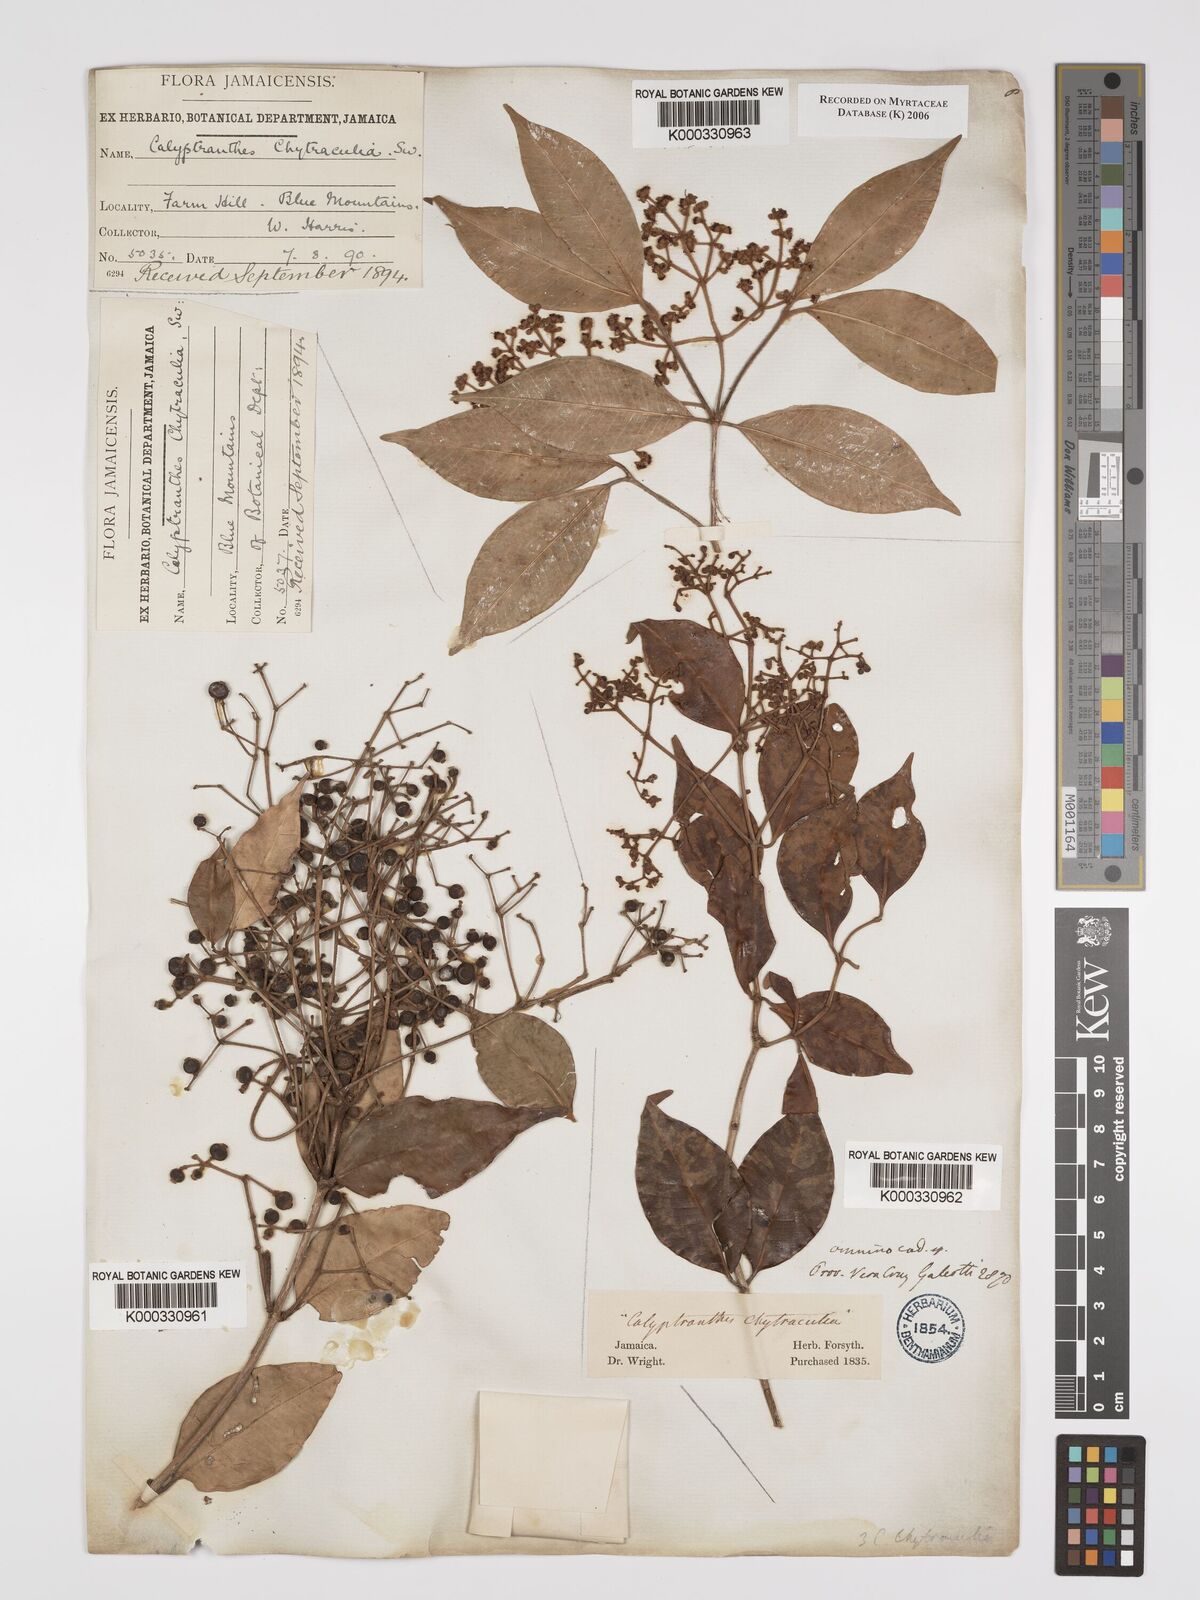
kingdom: Plantae
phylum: Tracheophyta
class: Magnoliopsida
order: Myrtales
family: Myrtaceae
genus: Myrcia
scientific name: Myrcia chytraculia
